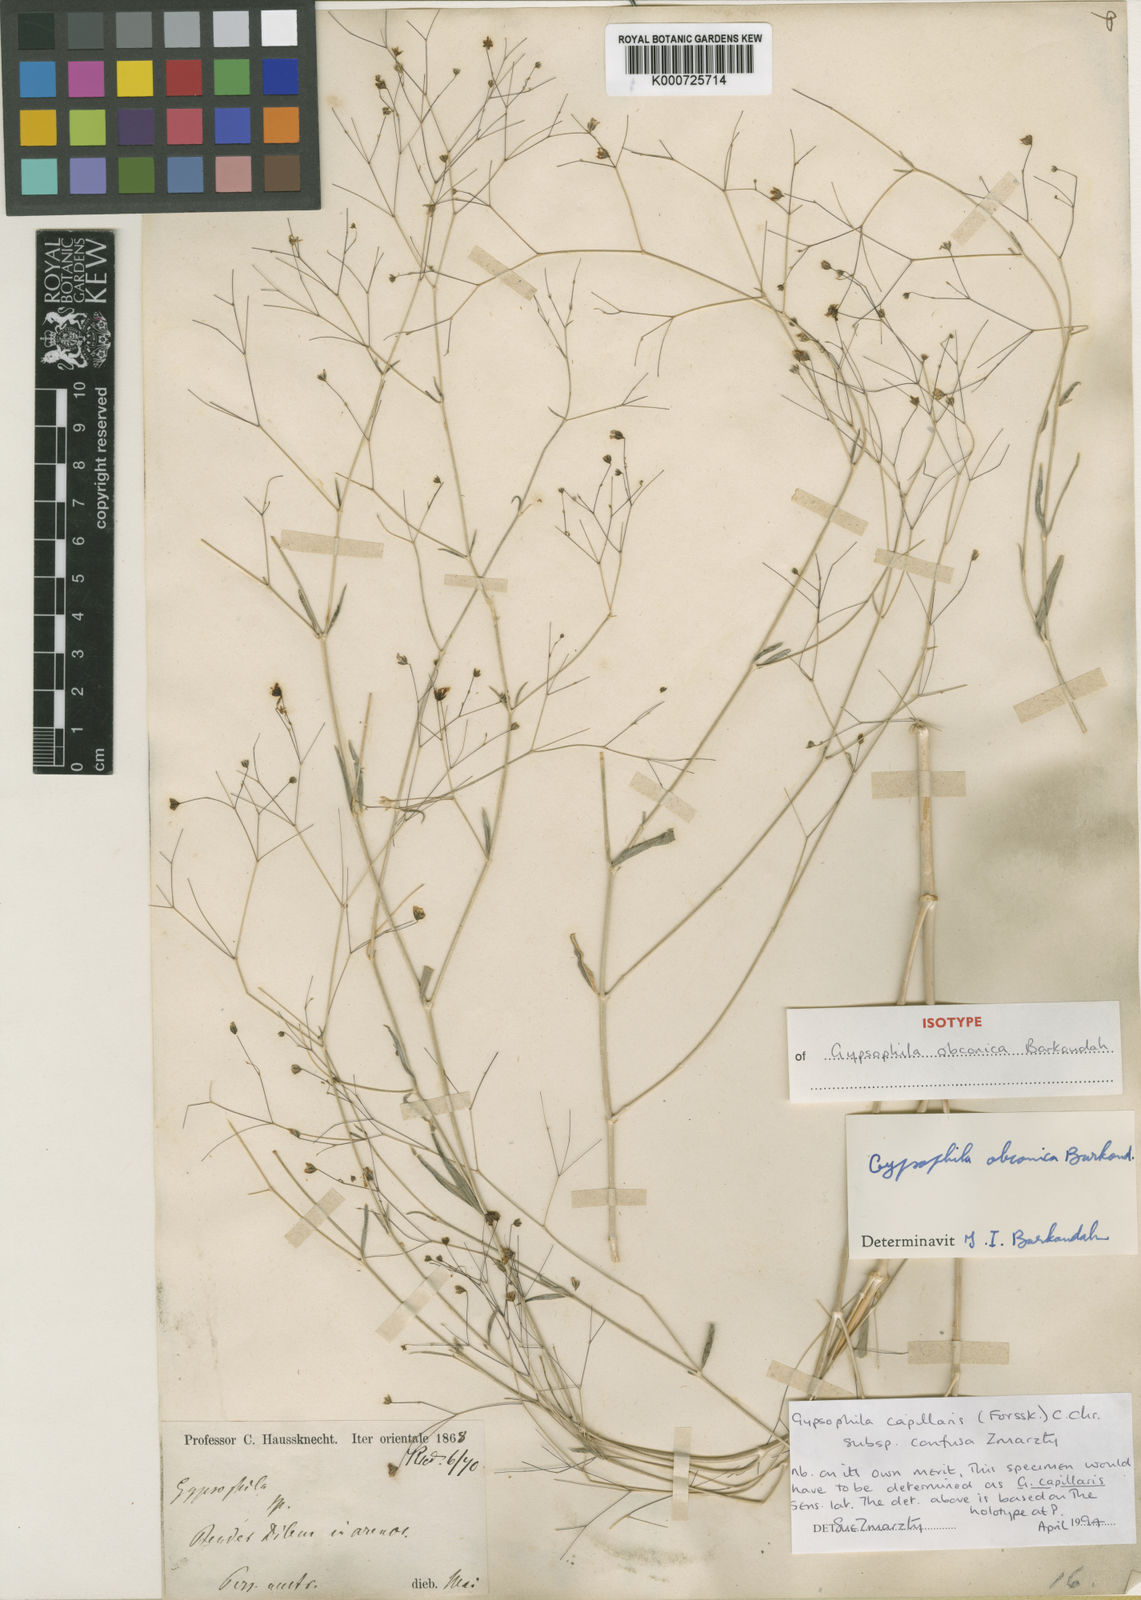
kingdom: Plantae
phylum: Tracheophyta
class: Magnoliopsida
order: Caryophyllales
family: Caryophyllaceae
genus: Gypsophila
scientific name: Gypsophila capillaris
